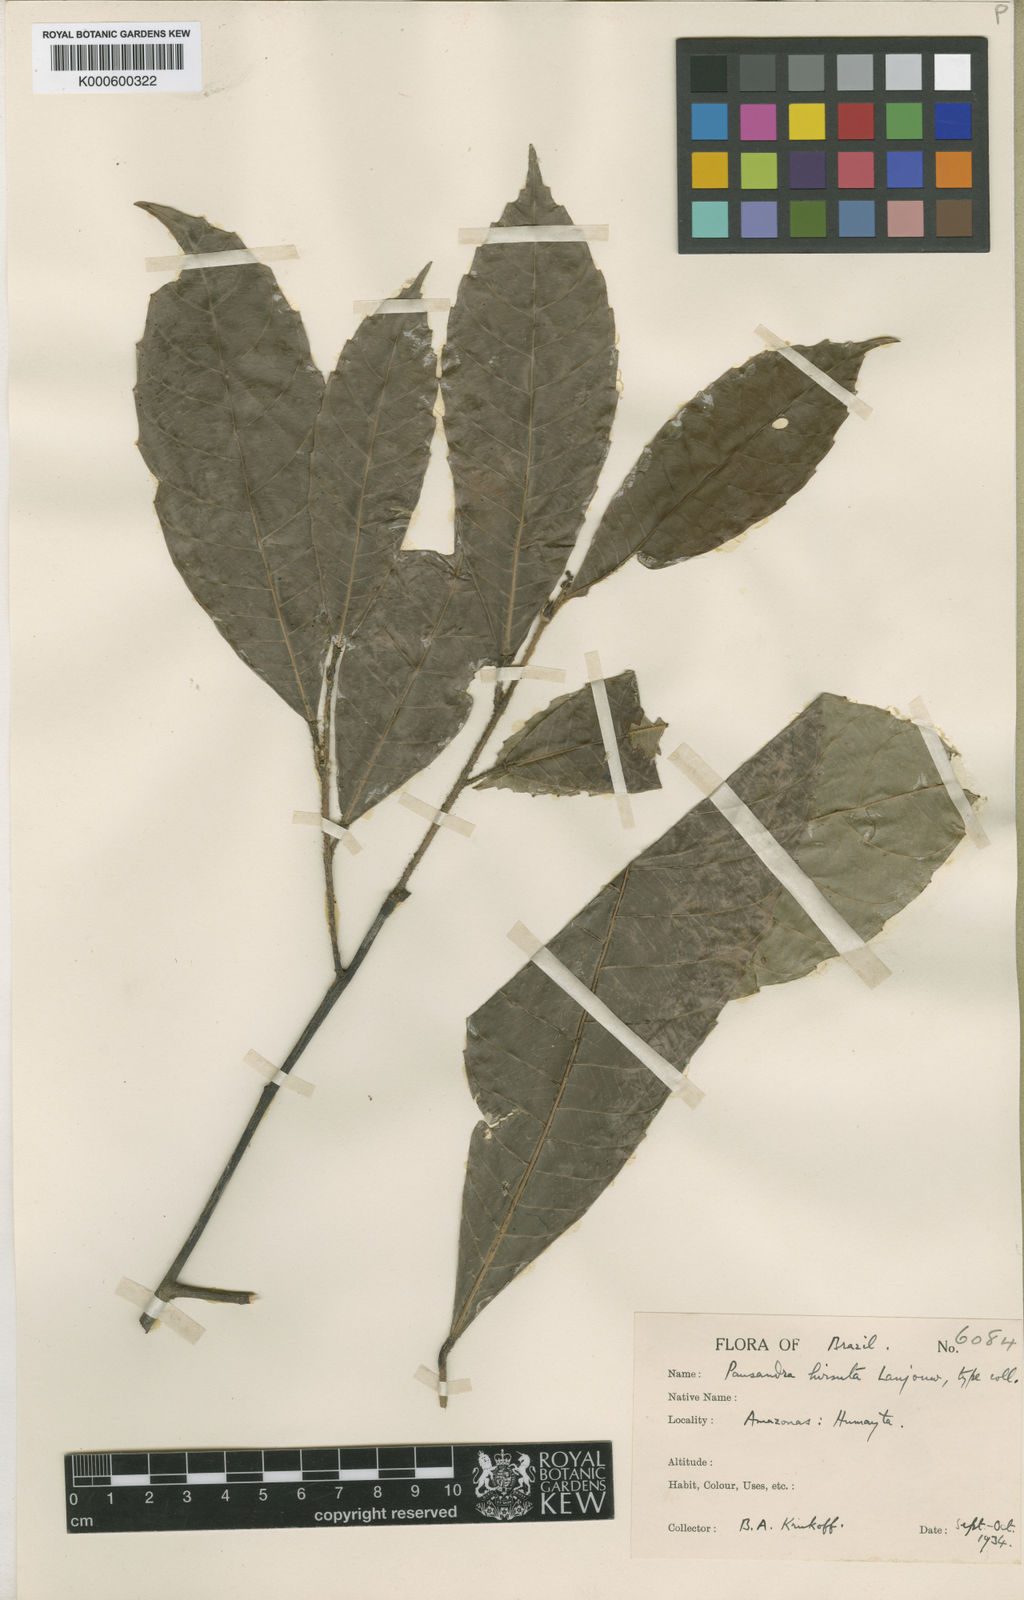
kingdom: Plantae
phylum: Tracheophyta
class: Magnoliopsida
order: Malpighiales
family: Euphorbiaceae
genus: Pausandra
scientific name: Pausandra hirsuta
